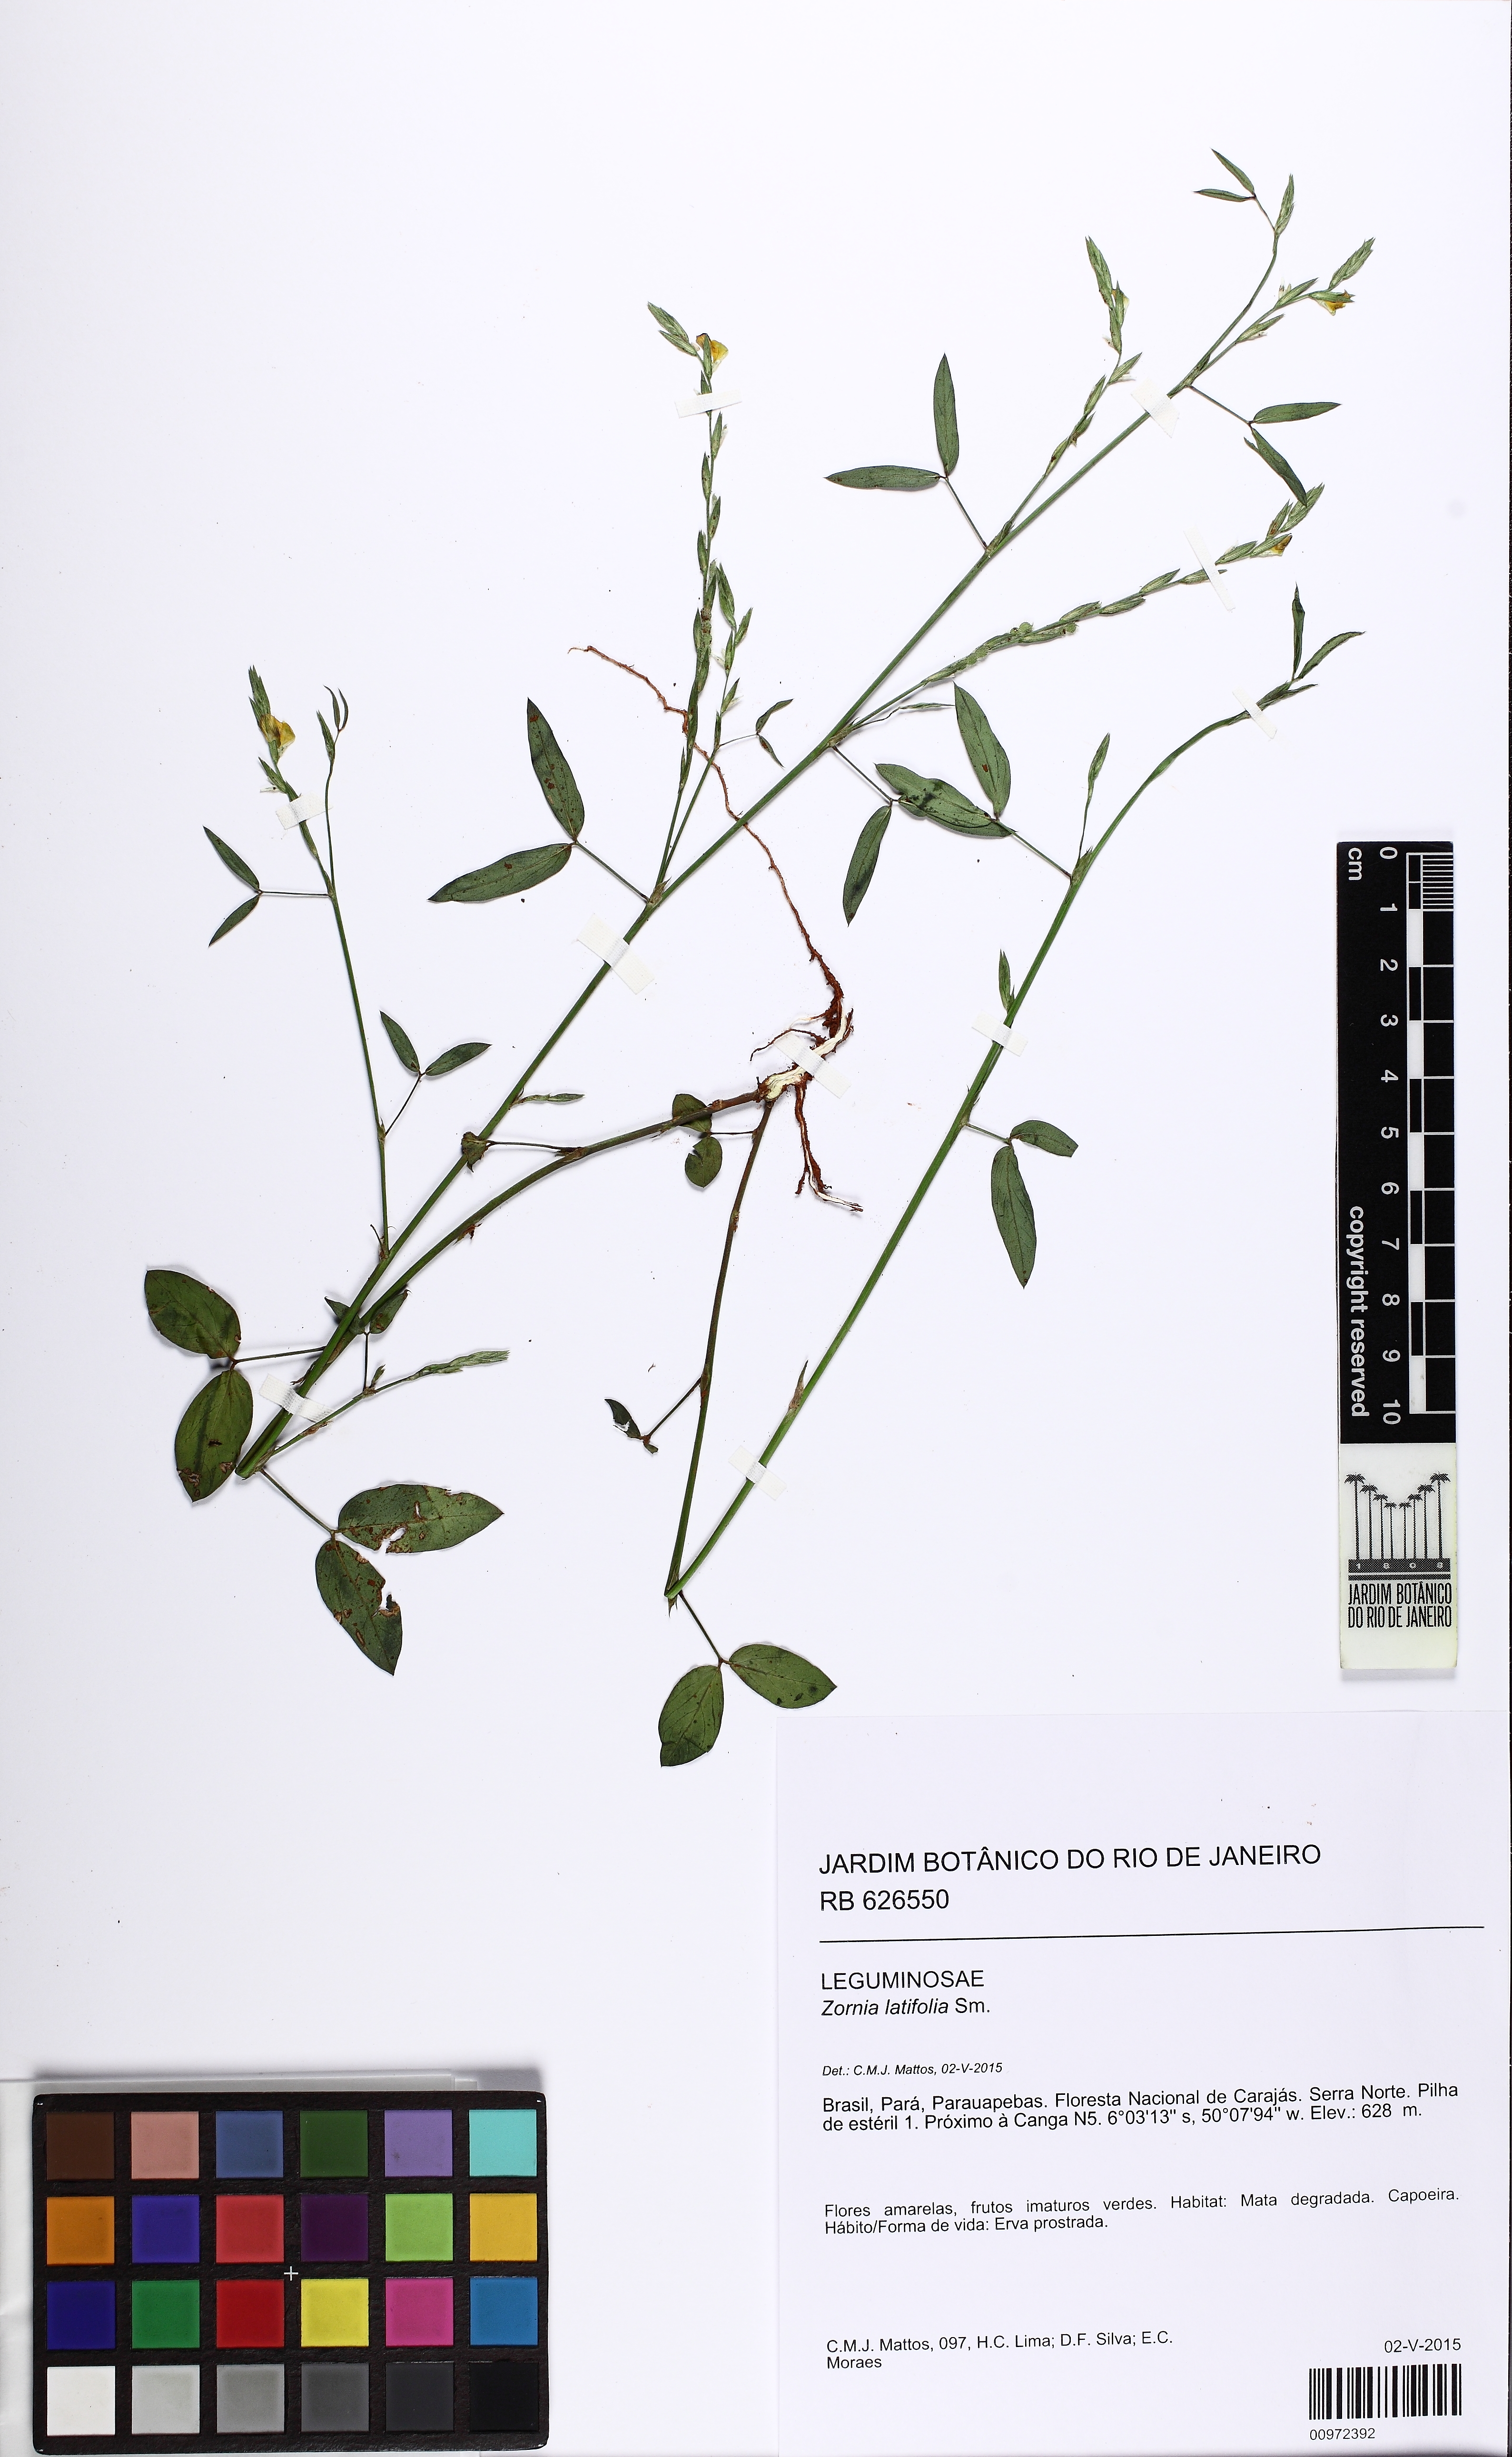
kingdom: Plantae
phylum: Tracheophyta
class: Magnoliopsida
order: Fabales
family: Fabaceae
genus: Zornia
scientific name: Zornia latifolia
